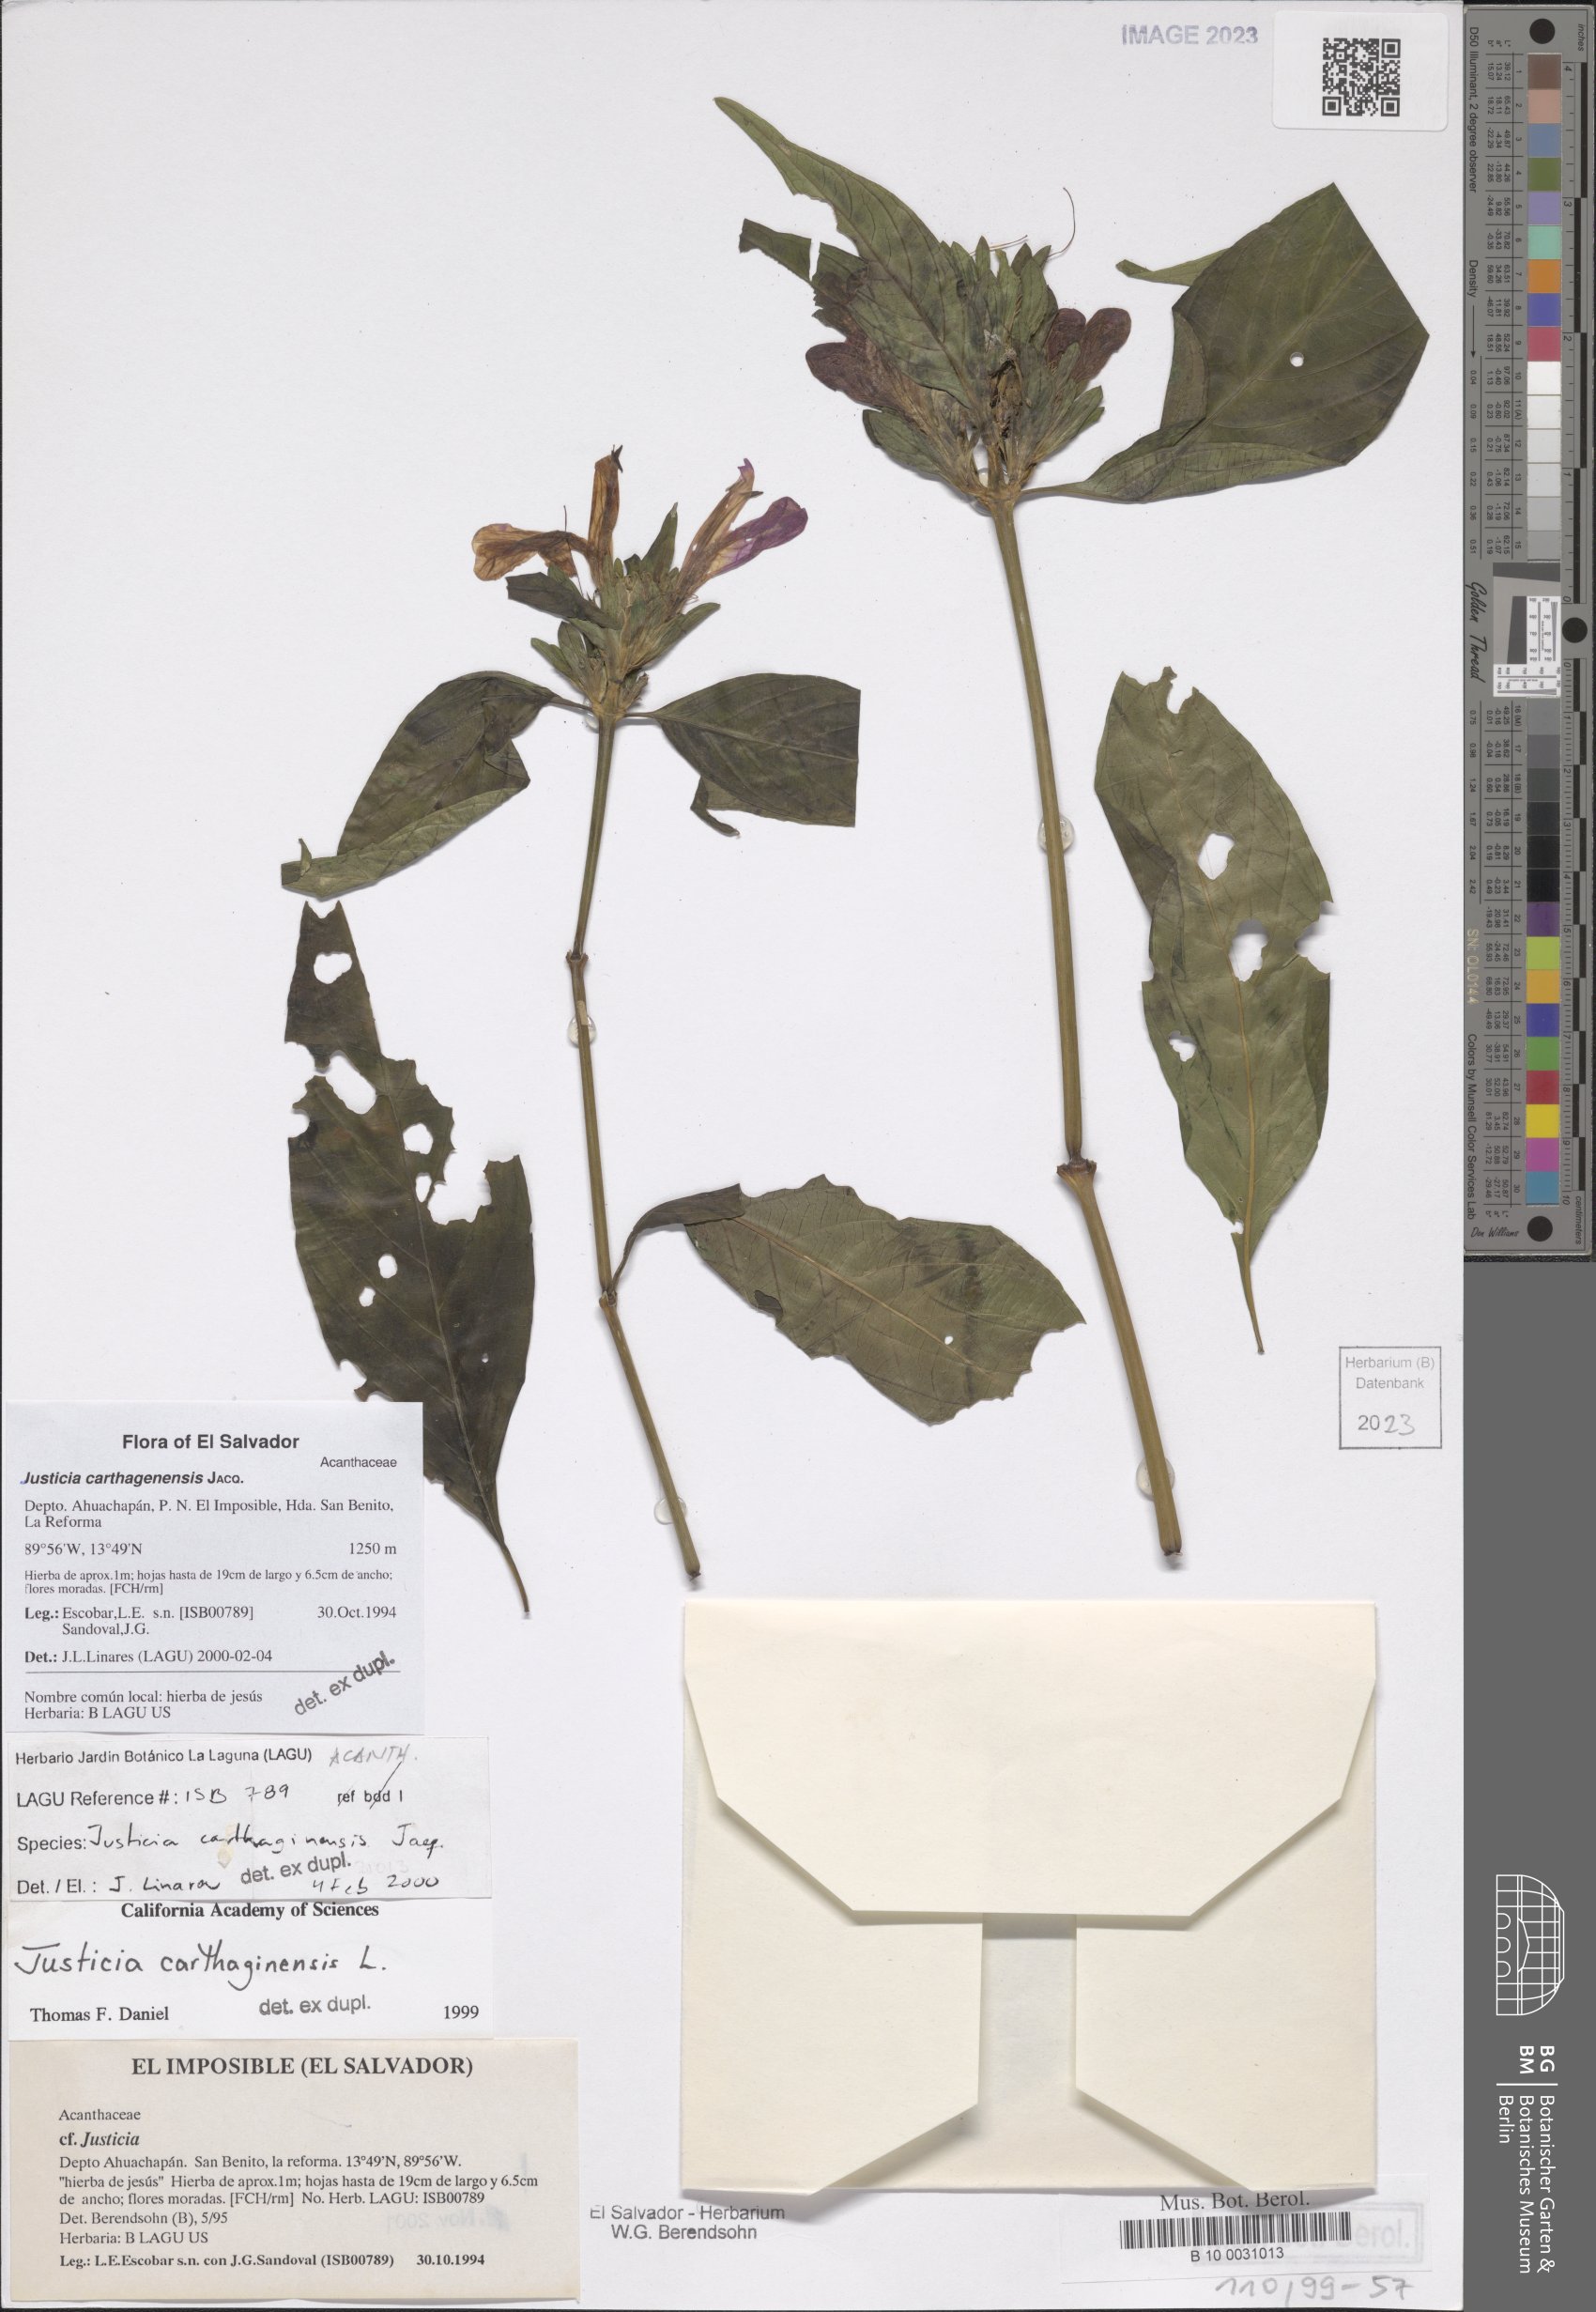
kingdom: Plantae
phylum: Tracheophyta
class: Magnoliopsida
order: Lamiales
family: Acanthaceae
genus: Justicia
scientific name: Justicia carthagenensis
